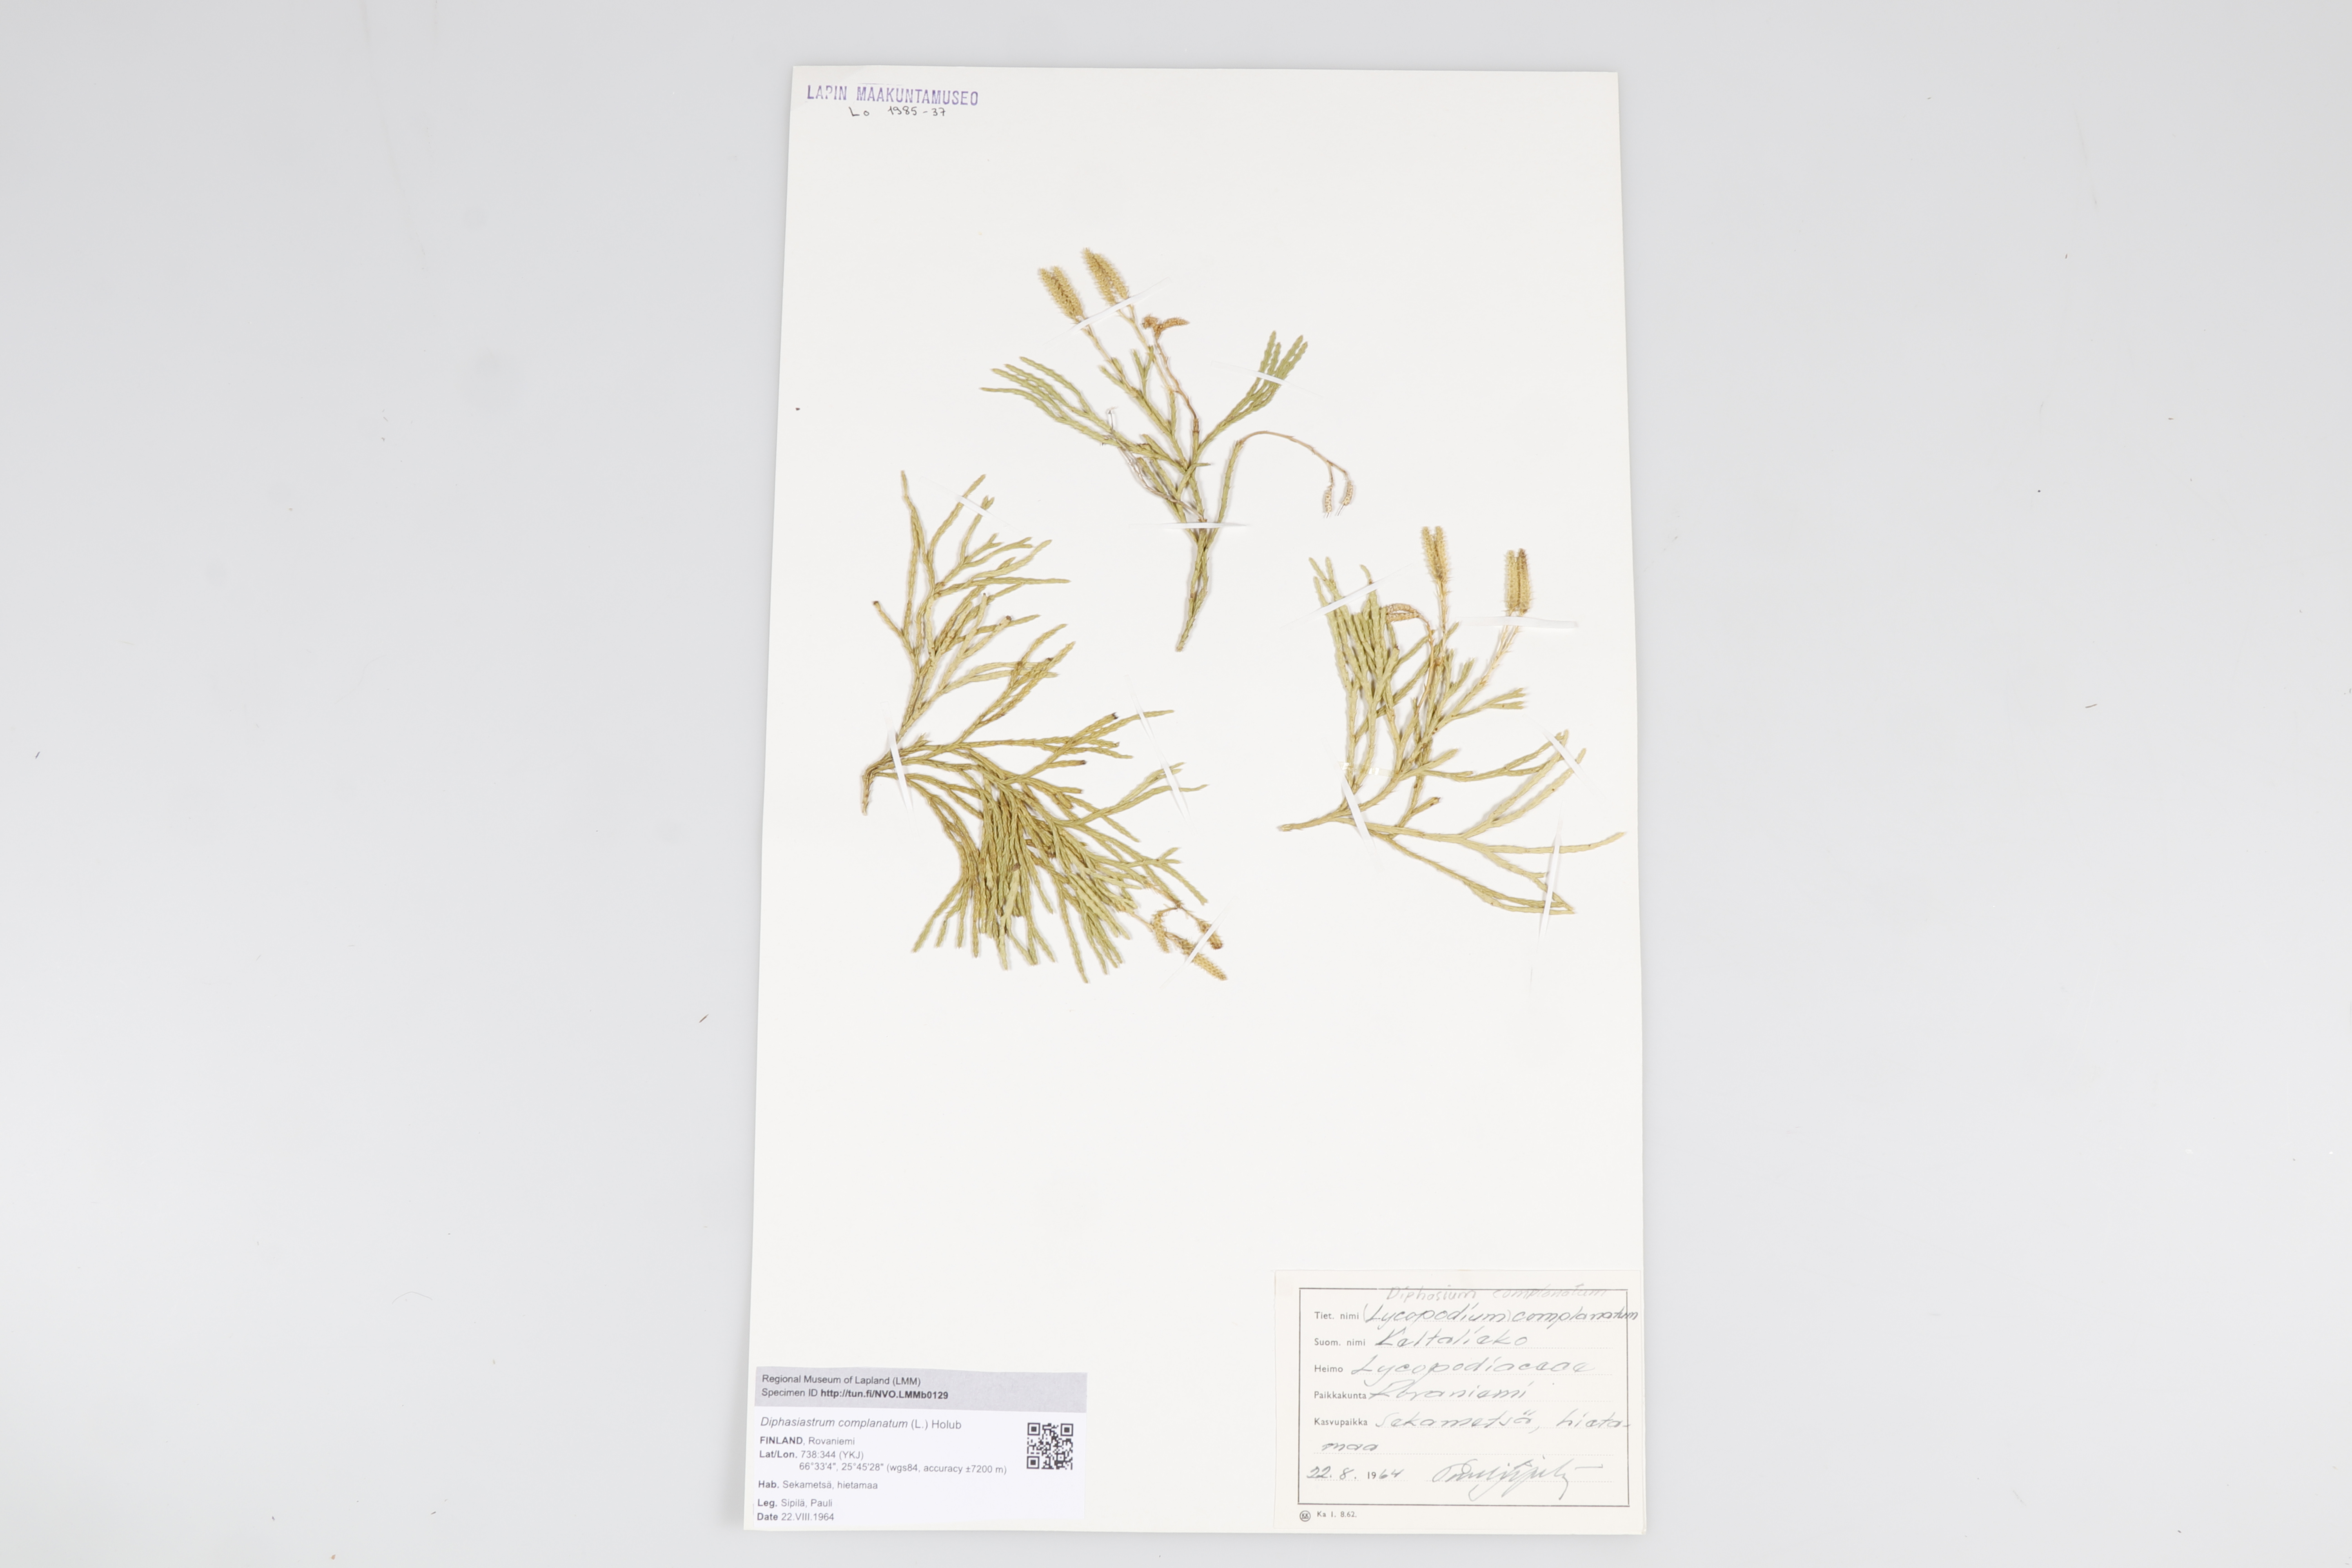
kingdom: Plantae
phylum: Tracheophyta
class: Lycopodiopsida
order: Lycopodiales
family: Lycopodiaceae
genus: Diphasiastrum
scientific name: Diphasiastrum
